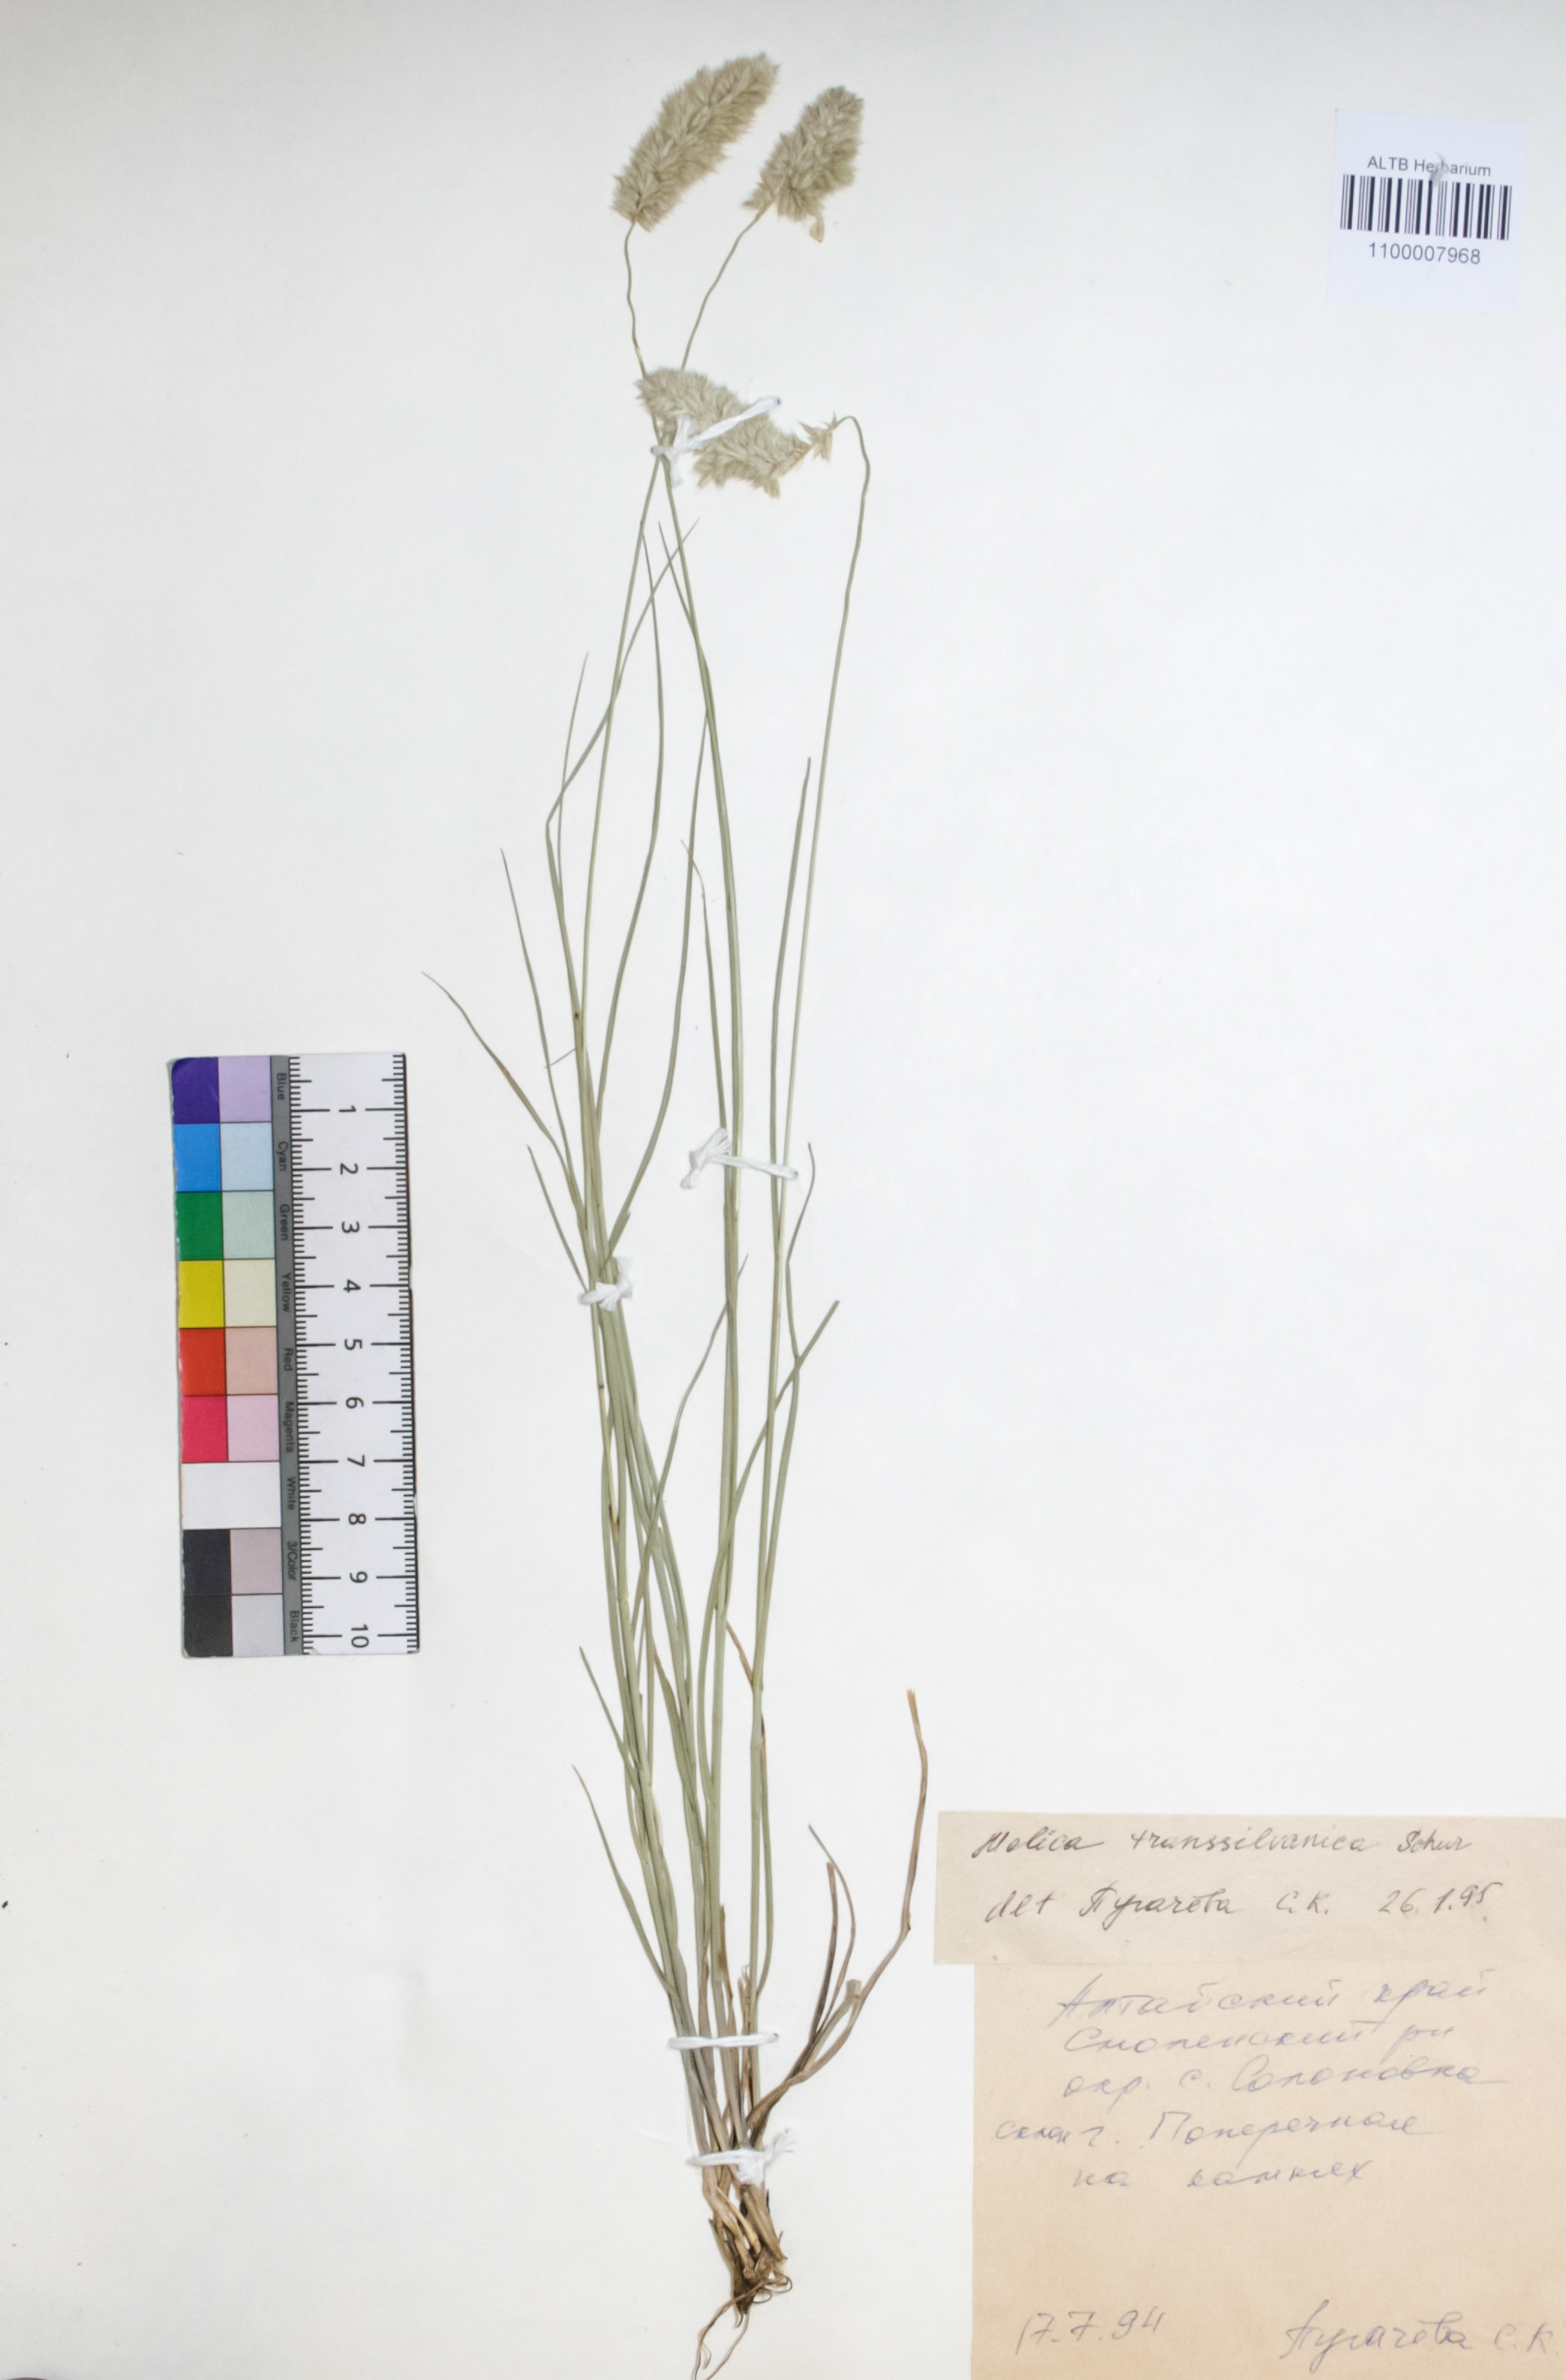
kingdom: Plantae
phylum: Tracheophyta
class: Liliopsida
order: Poales
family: Poaceae
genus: Melica
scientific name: Melica transsilvanica
